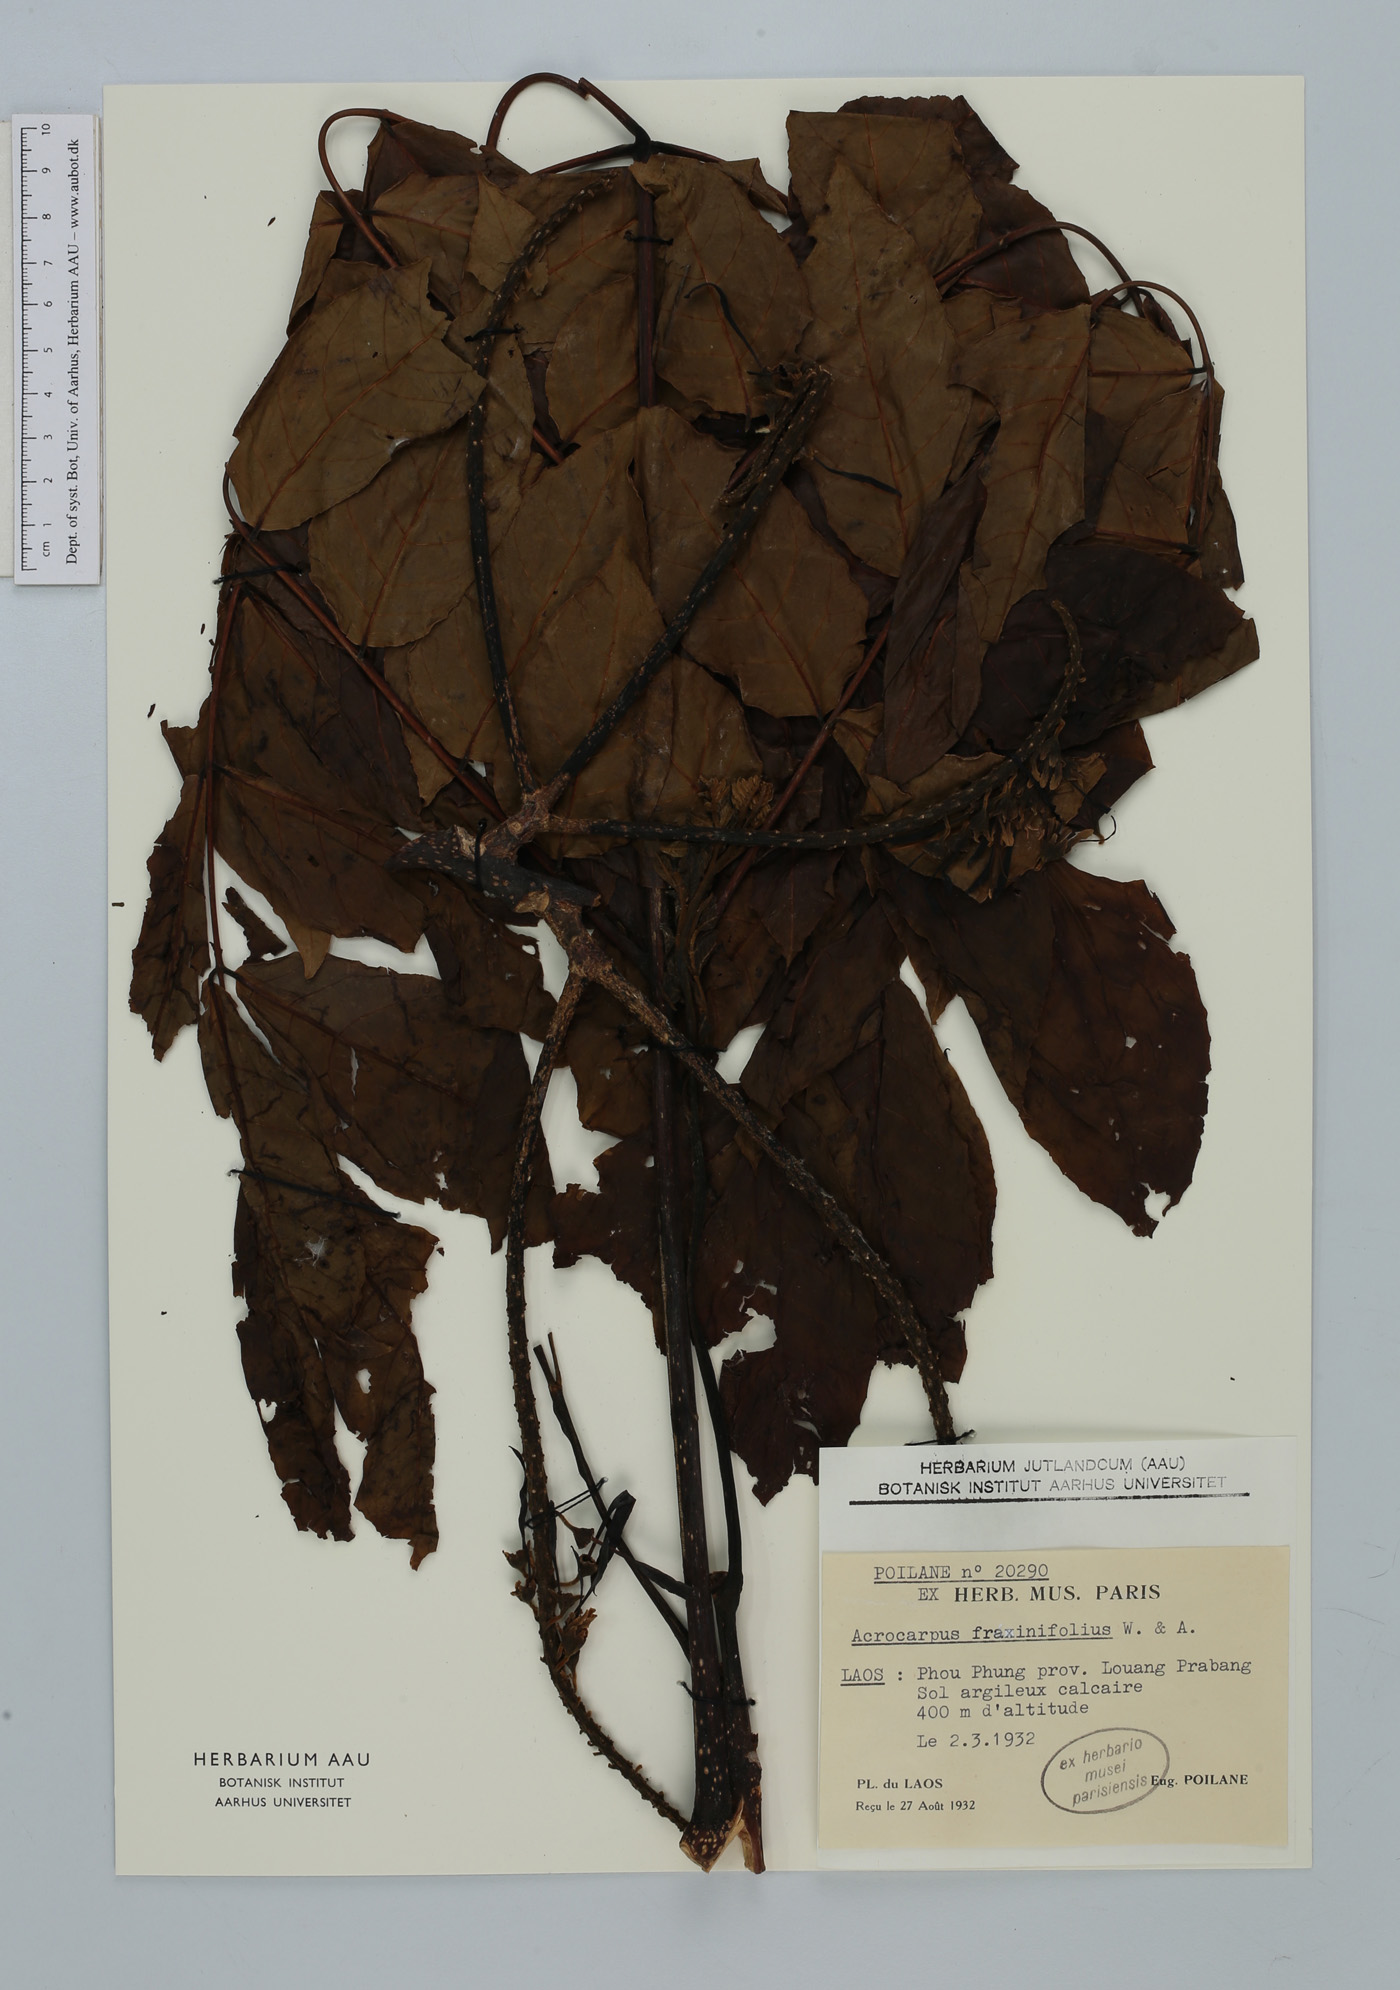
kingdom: Plantae
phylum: Tracheophyta
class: Magnoliopsida
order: Fabales
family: Fabaceae
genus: Acrocarpus
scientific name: Acrocarpus fraxinifolius
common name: Kenya coffeeshade
